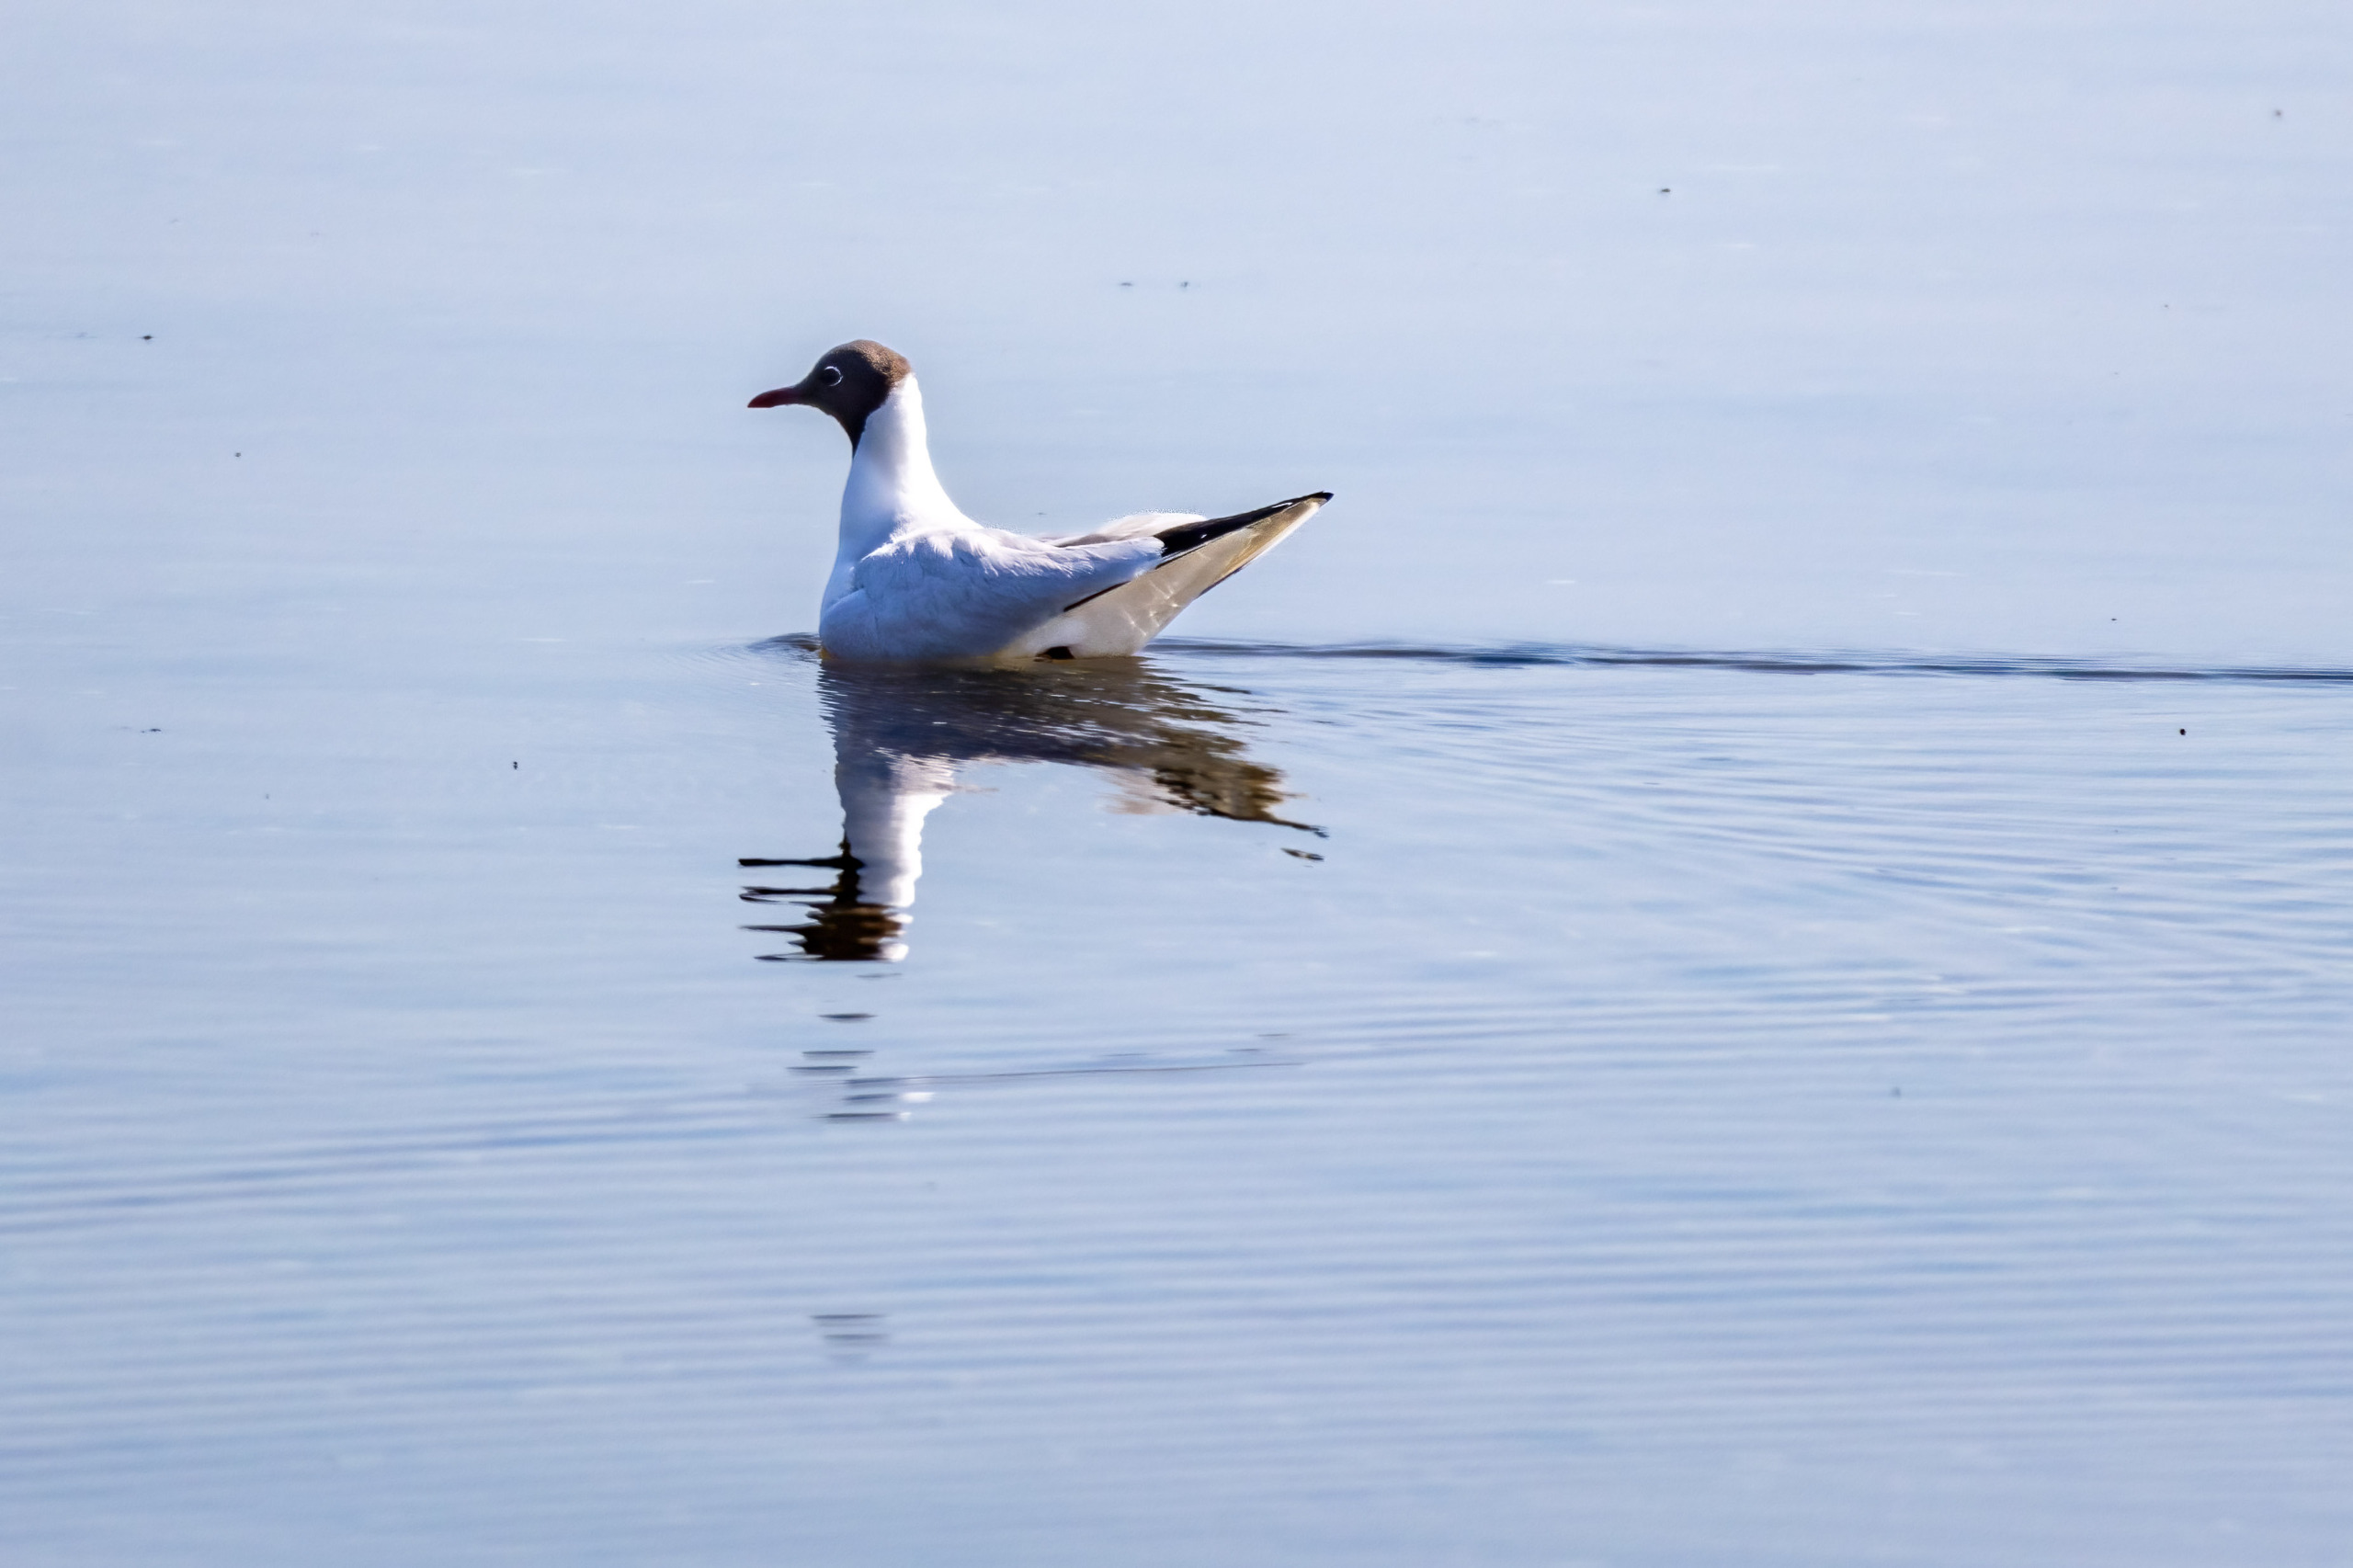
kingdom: Animalia
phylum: Chordata
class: Aves
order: Charadriiformes
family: Laridae
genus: Chroicocephalus
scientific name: Chroicocephalus ridibundus
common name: Hættemåge
